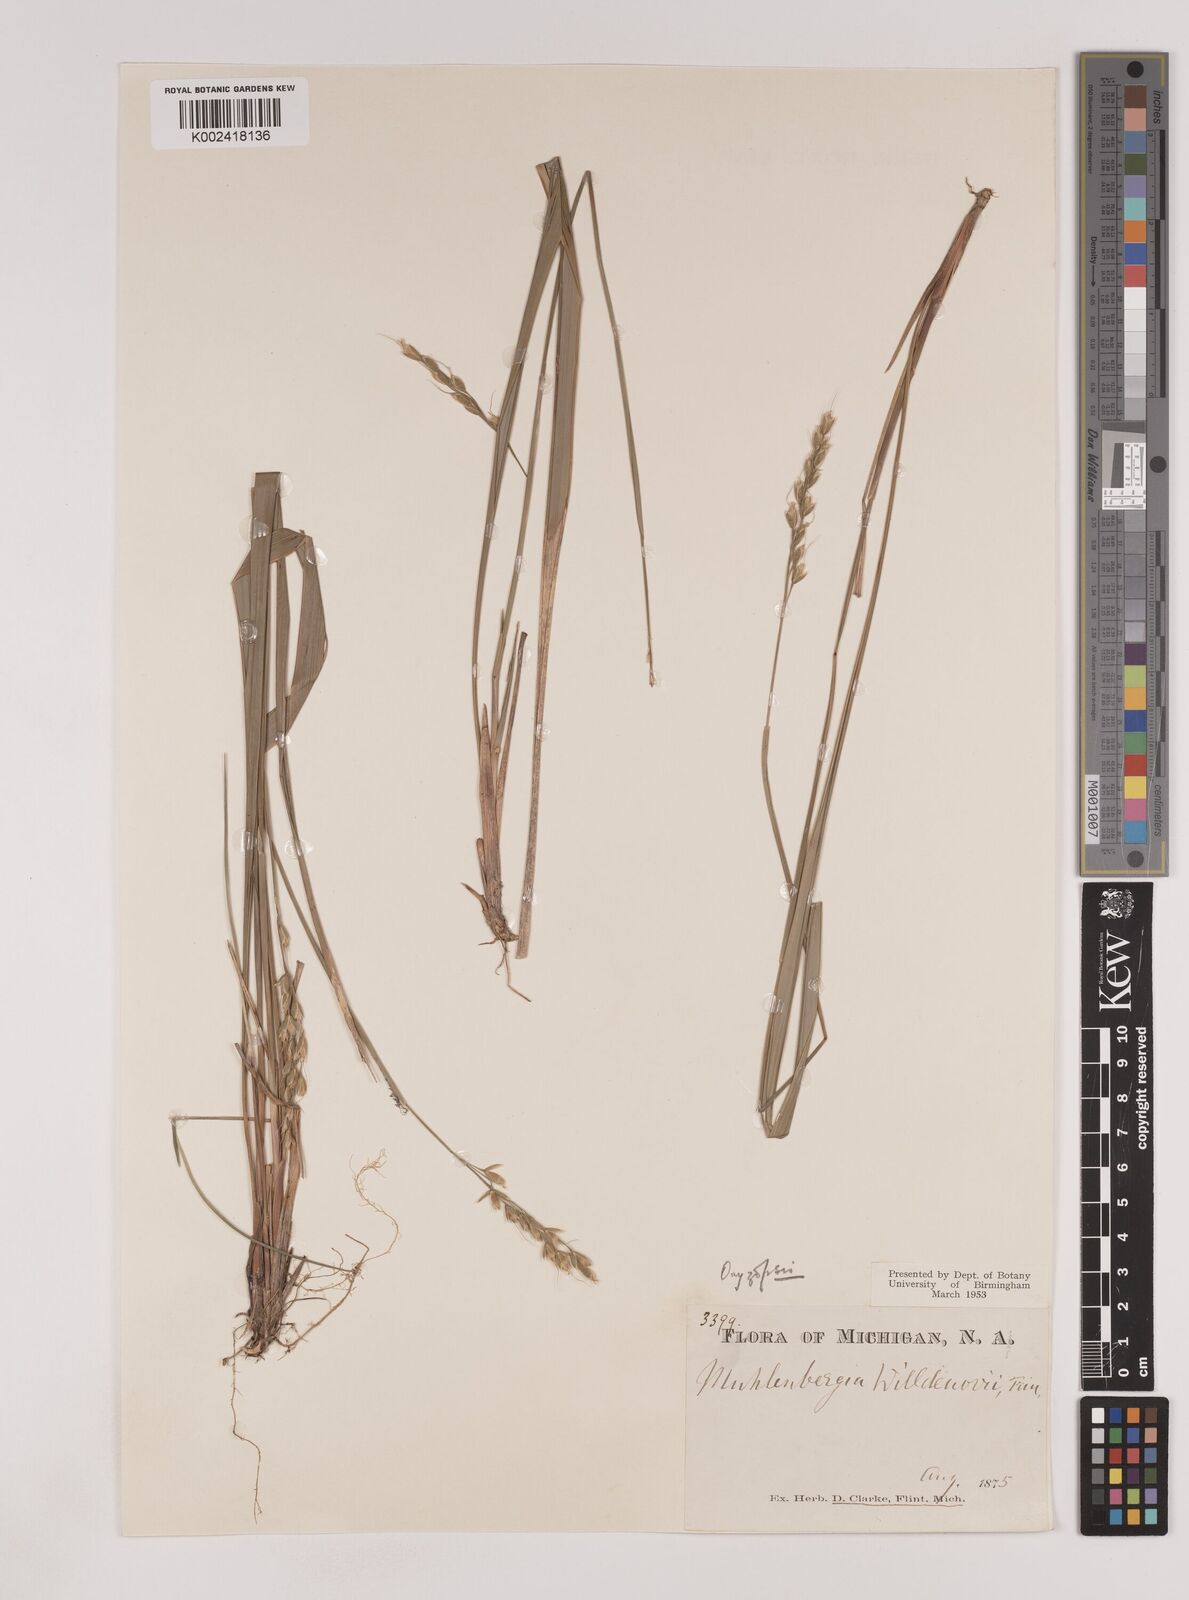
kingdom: Plantae
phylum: Tracheophyta
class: Liliopsida
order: Poales
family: Poaceae
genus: Oryzopsis
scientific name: Oryzopsis asperifolia
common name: Rough-leaved mountain rice
